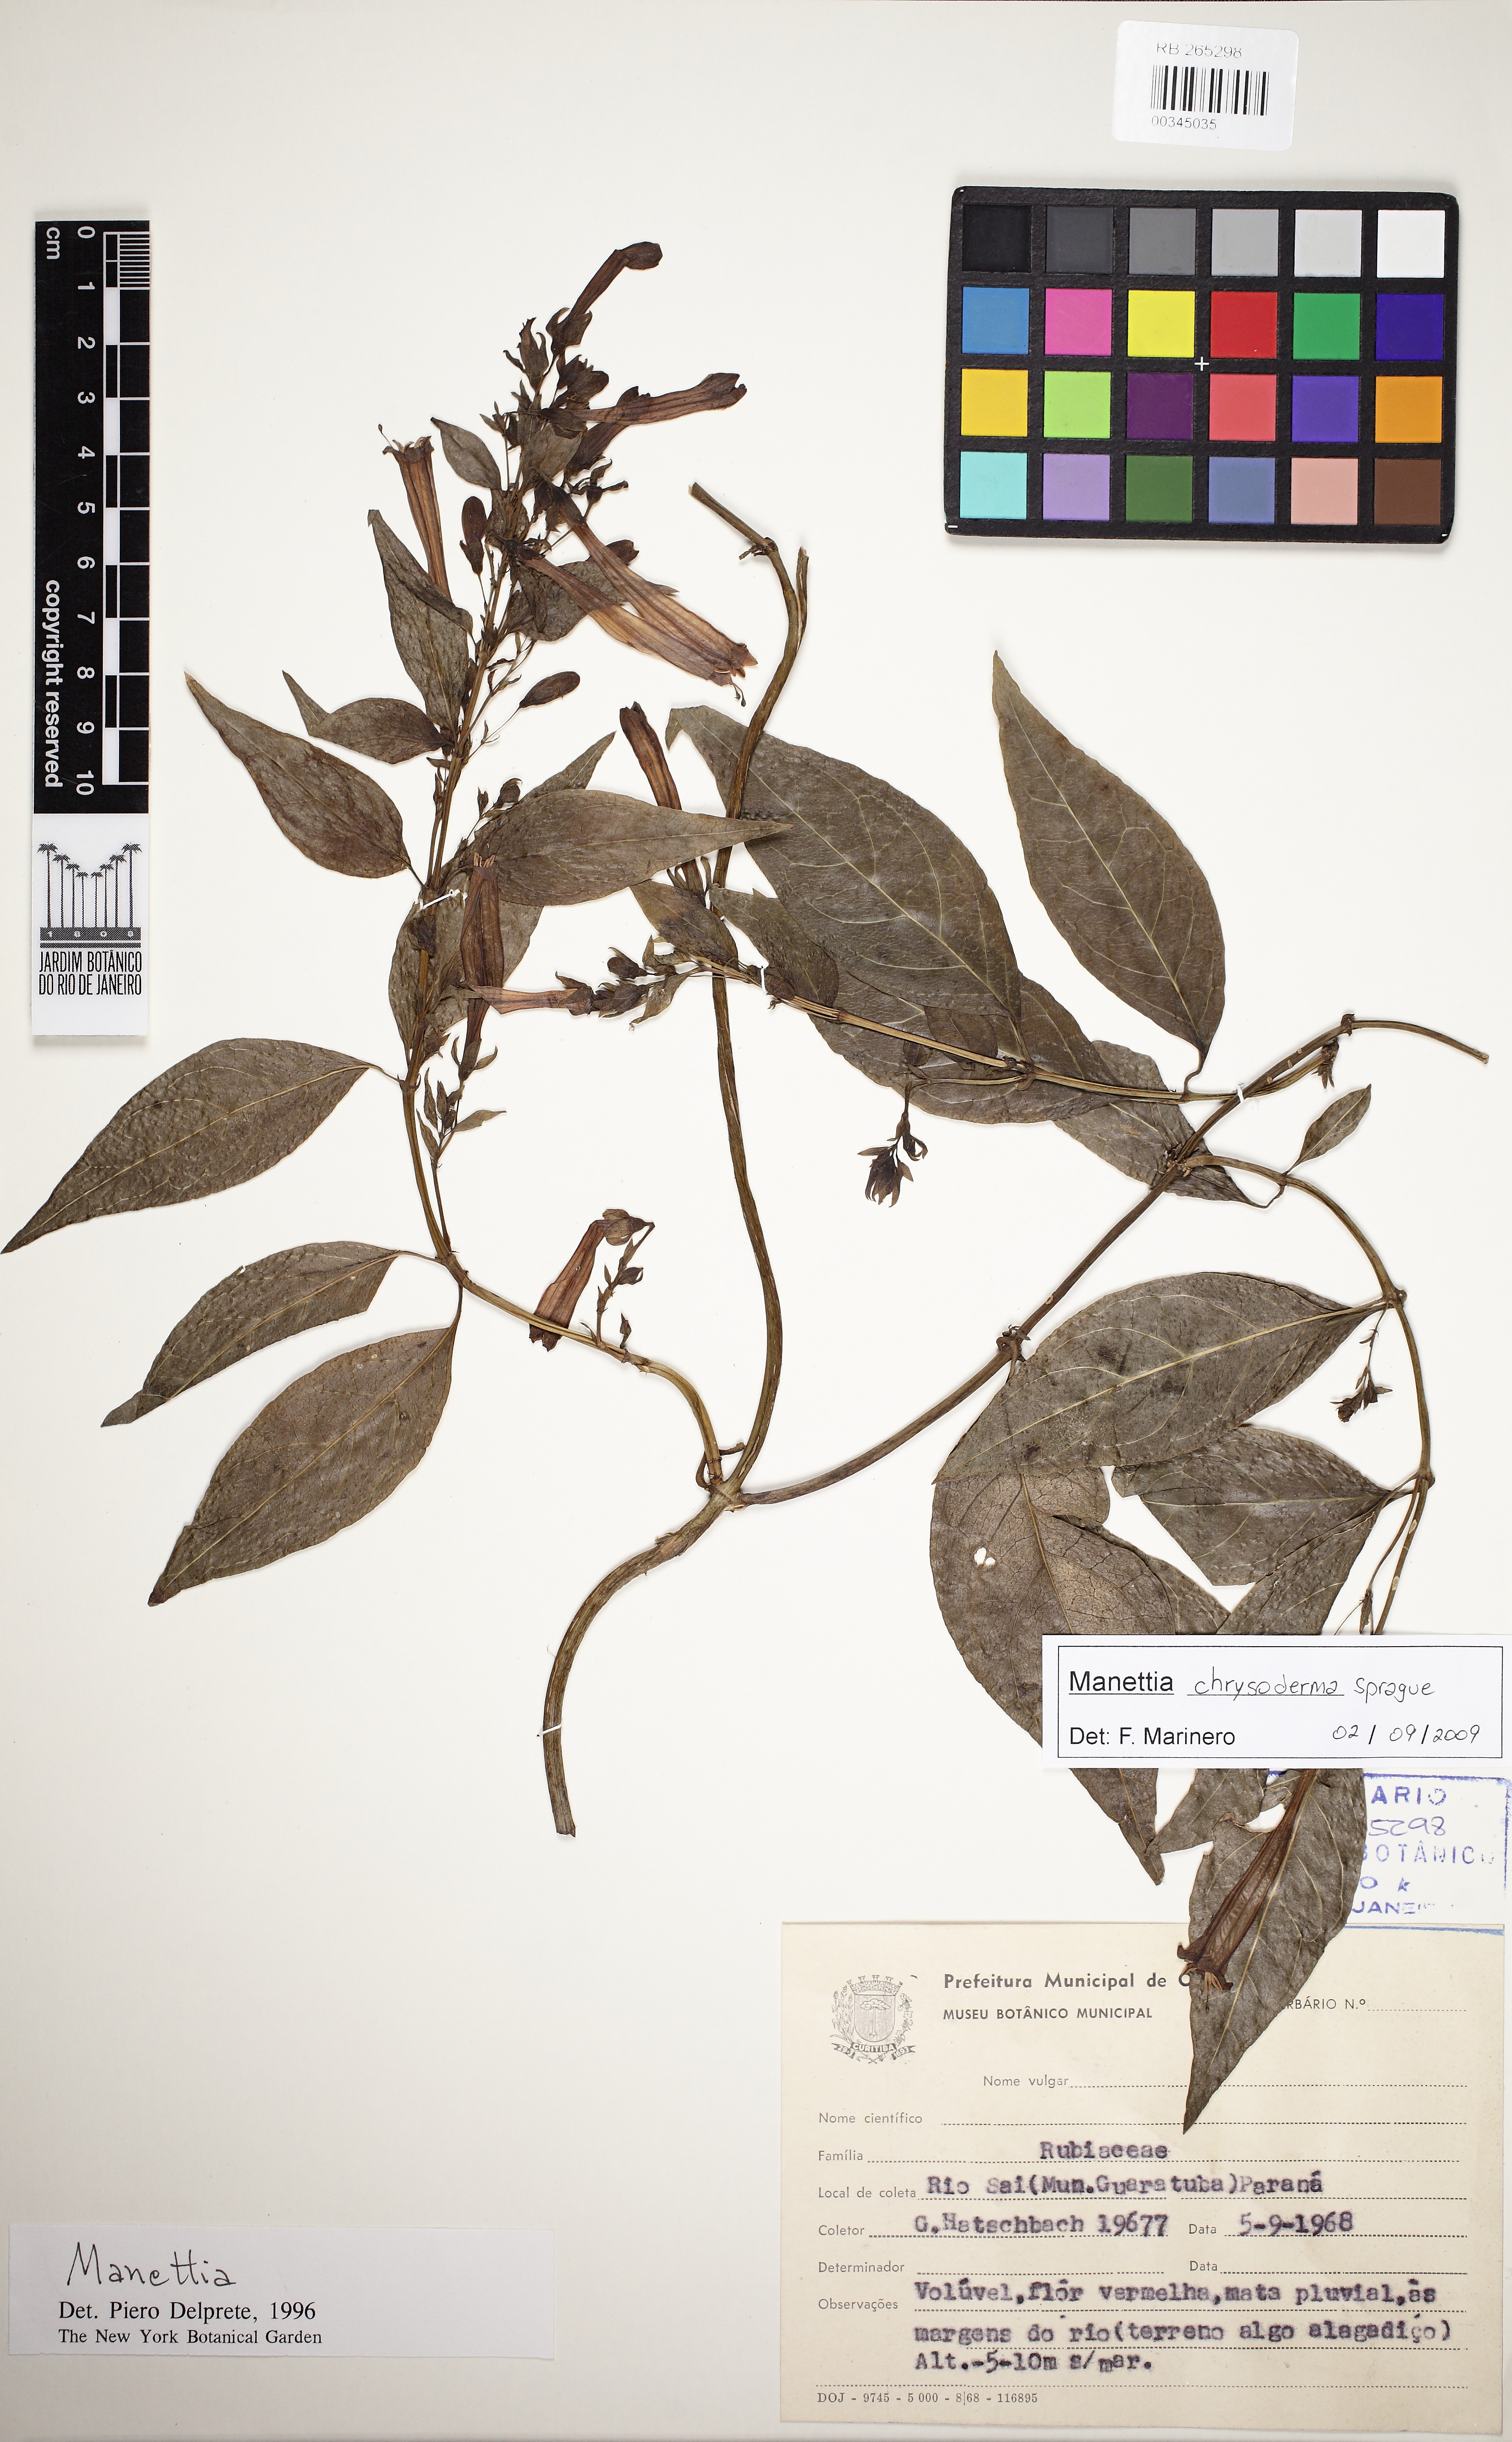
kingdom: Plantae
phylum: Tracheophyta
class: Magnoliopsida
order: Gentianales
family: Rubiaceae
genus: Manettia
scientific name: Manettia chrysoderma
